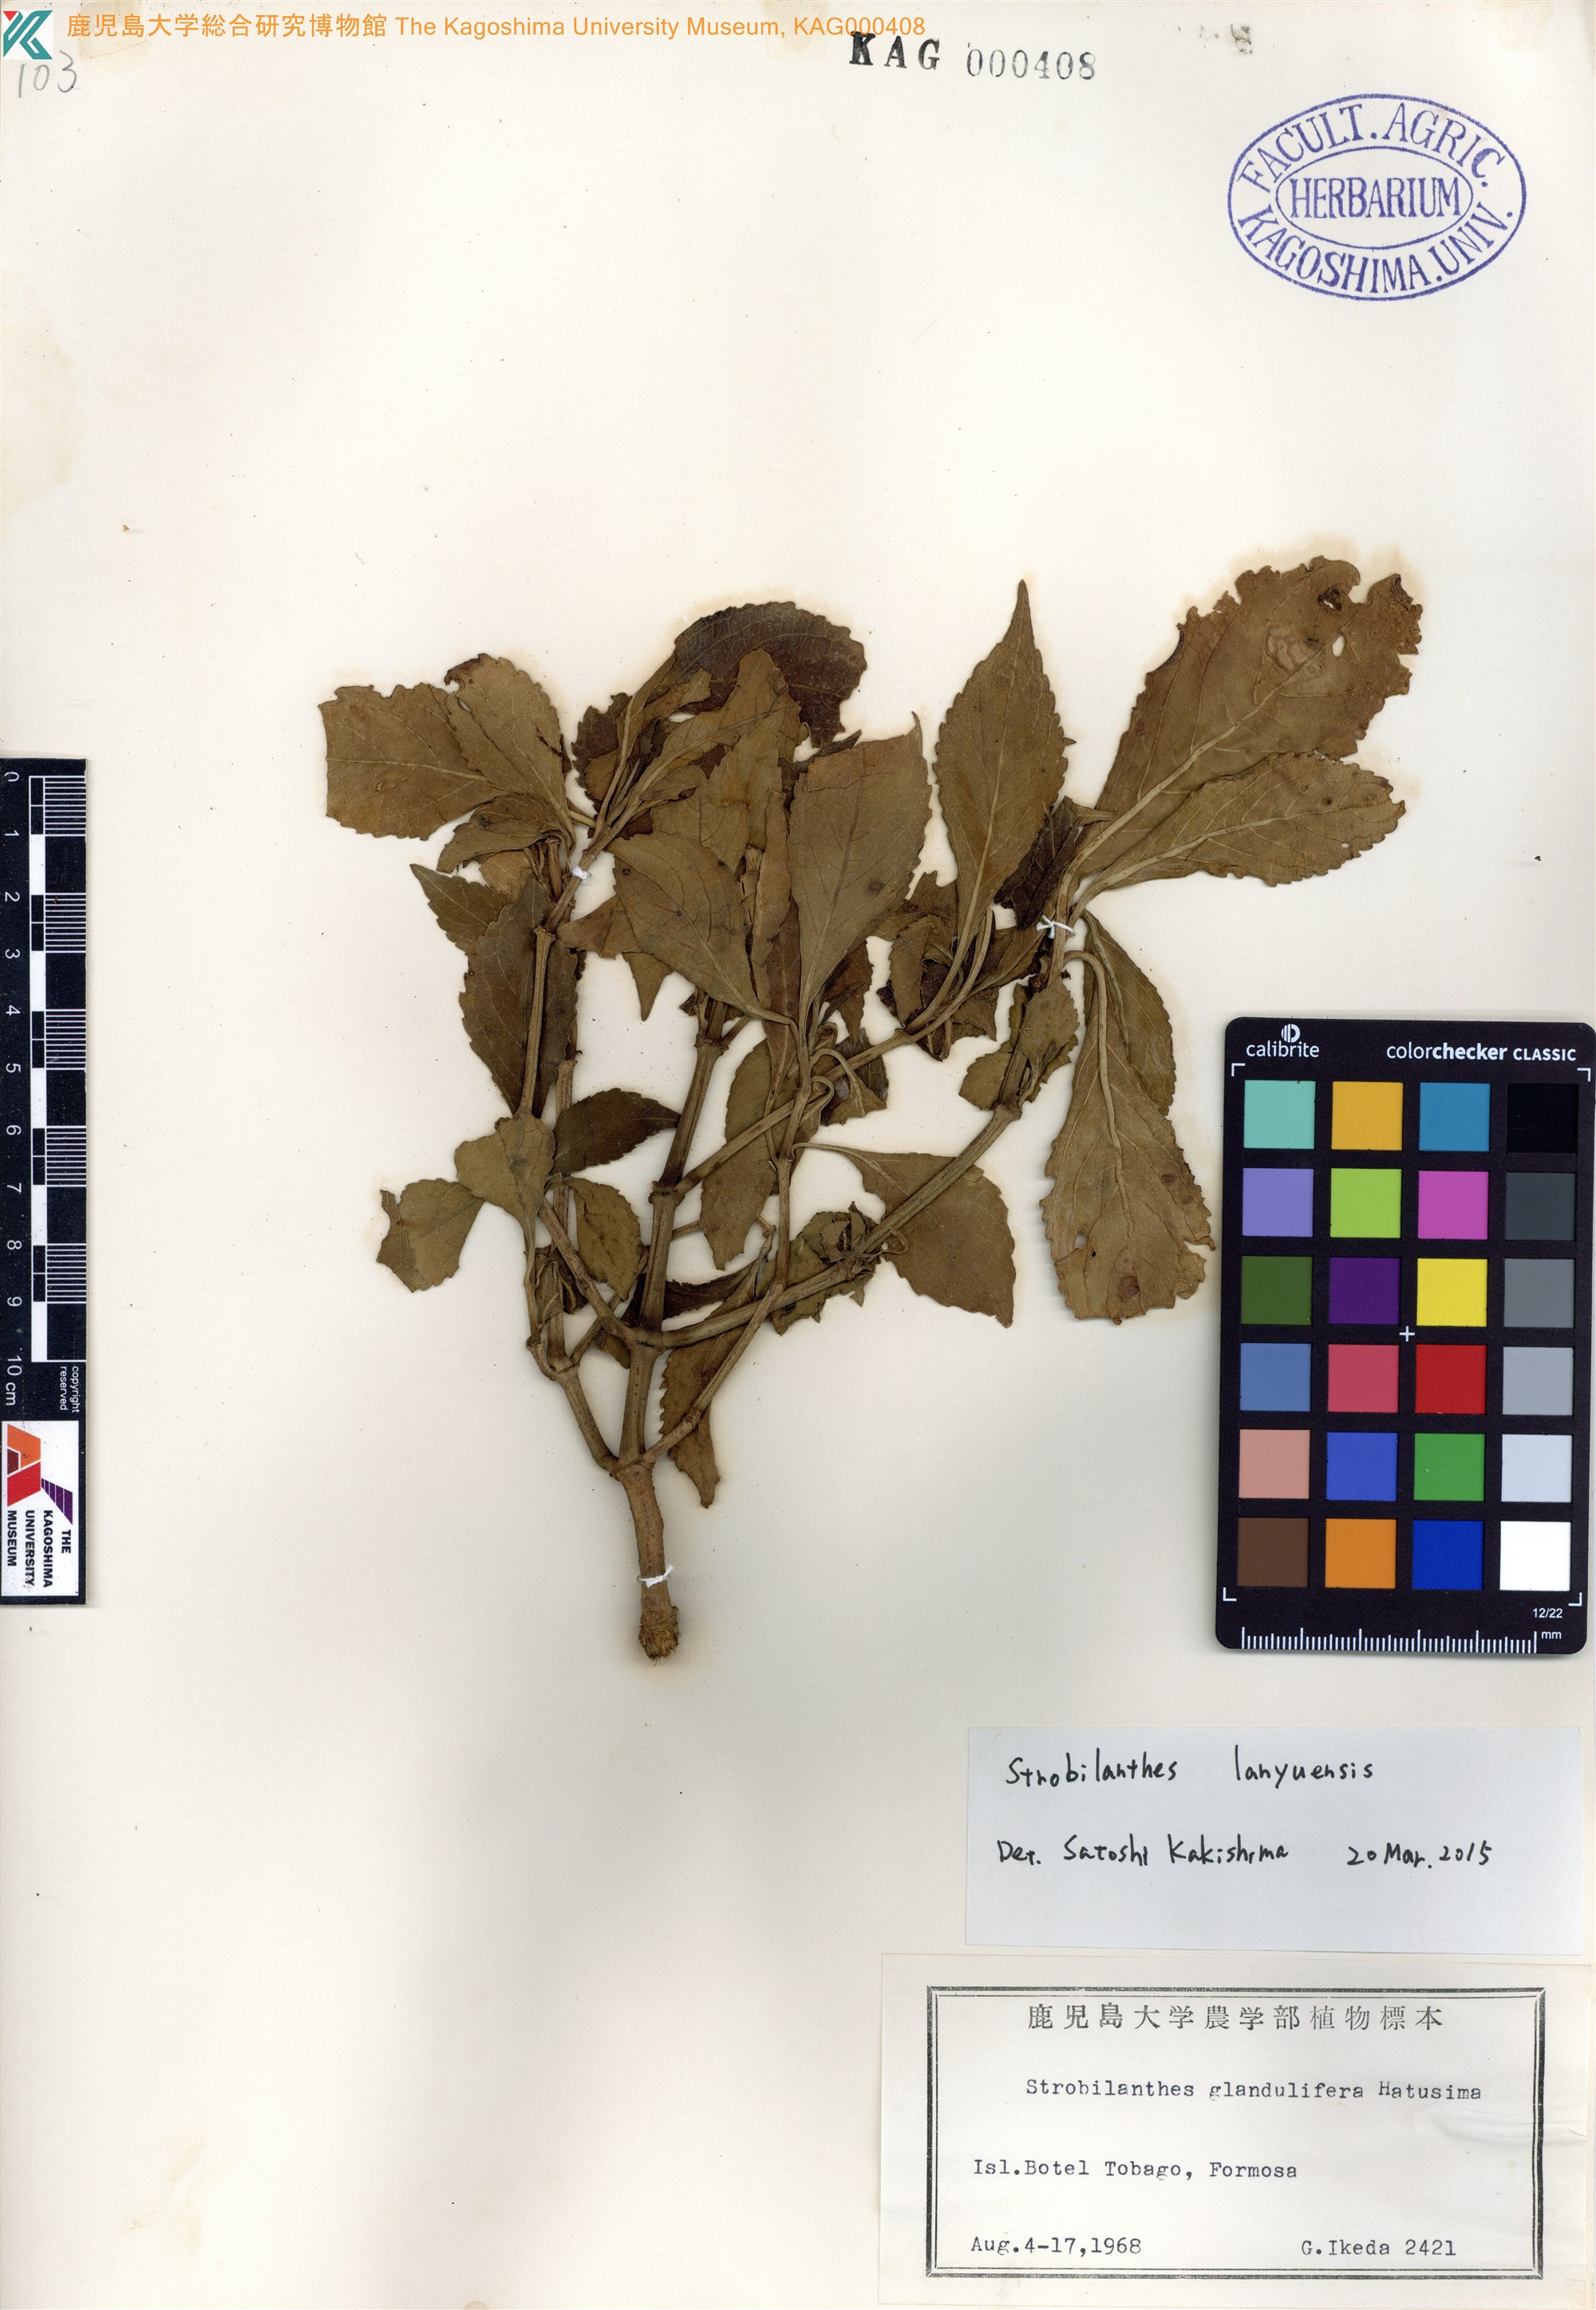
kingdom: Plantae
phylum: Tracheophyta
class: Magnoliopsida
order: Lamiales
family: Acanthaceae
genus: Strobilanthes
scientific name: Strobilanthes flexicaulis
